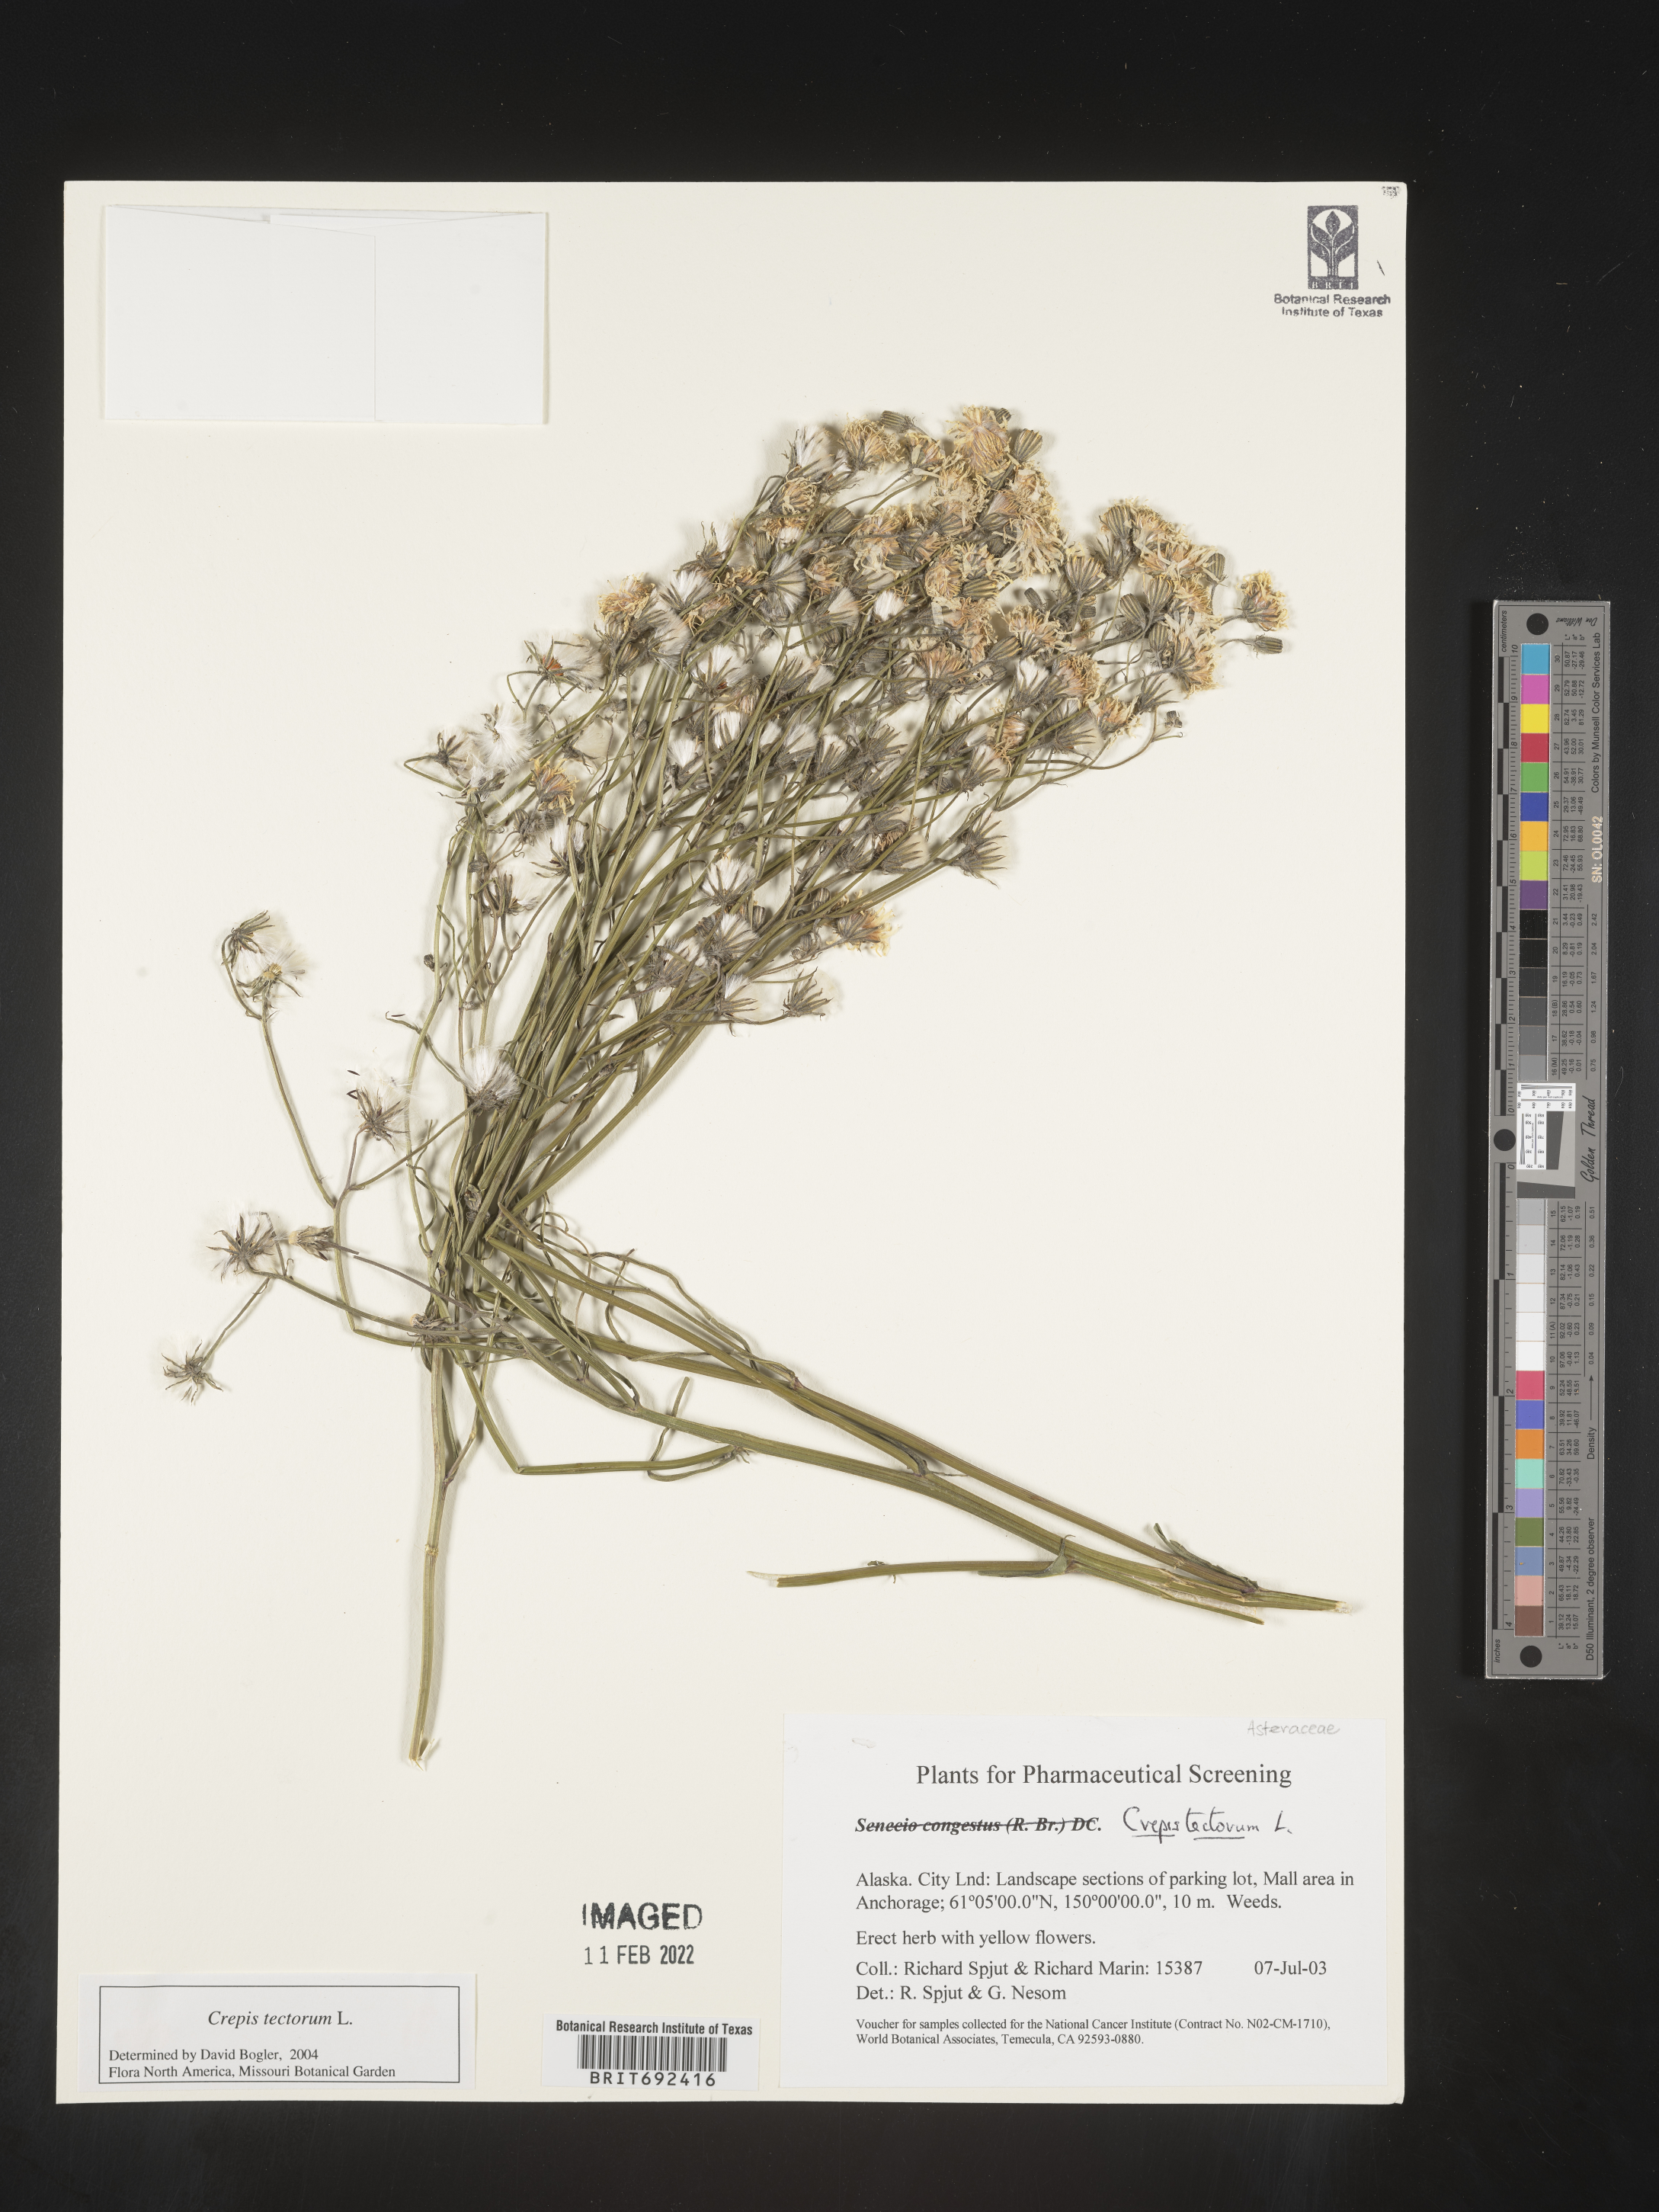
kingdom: Plantae
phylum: Tracheophyta
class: Magnoliopsida
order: Asterales
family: Asteraceae
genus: Crepis
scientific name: Crepis
